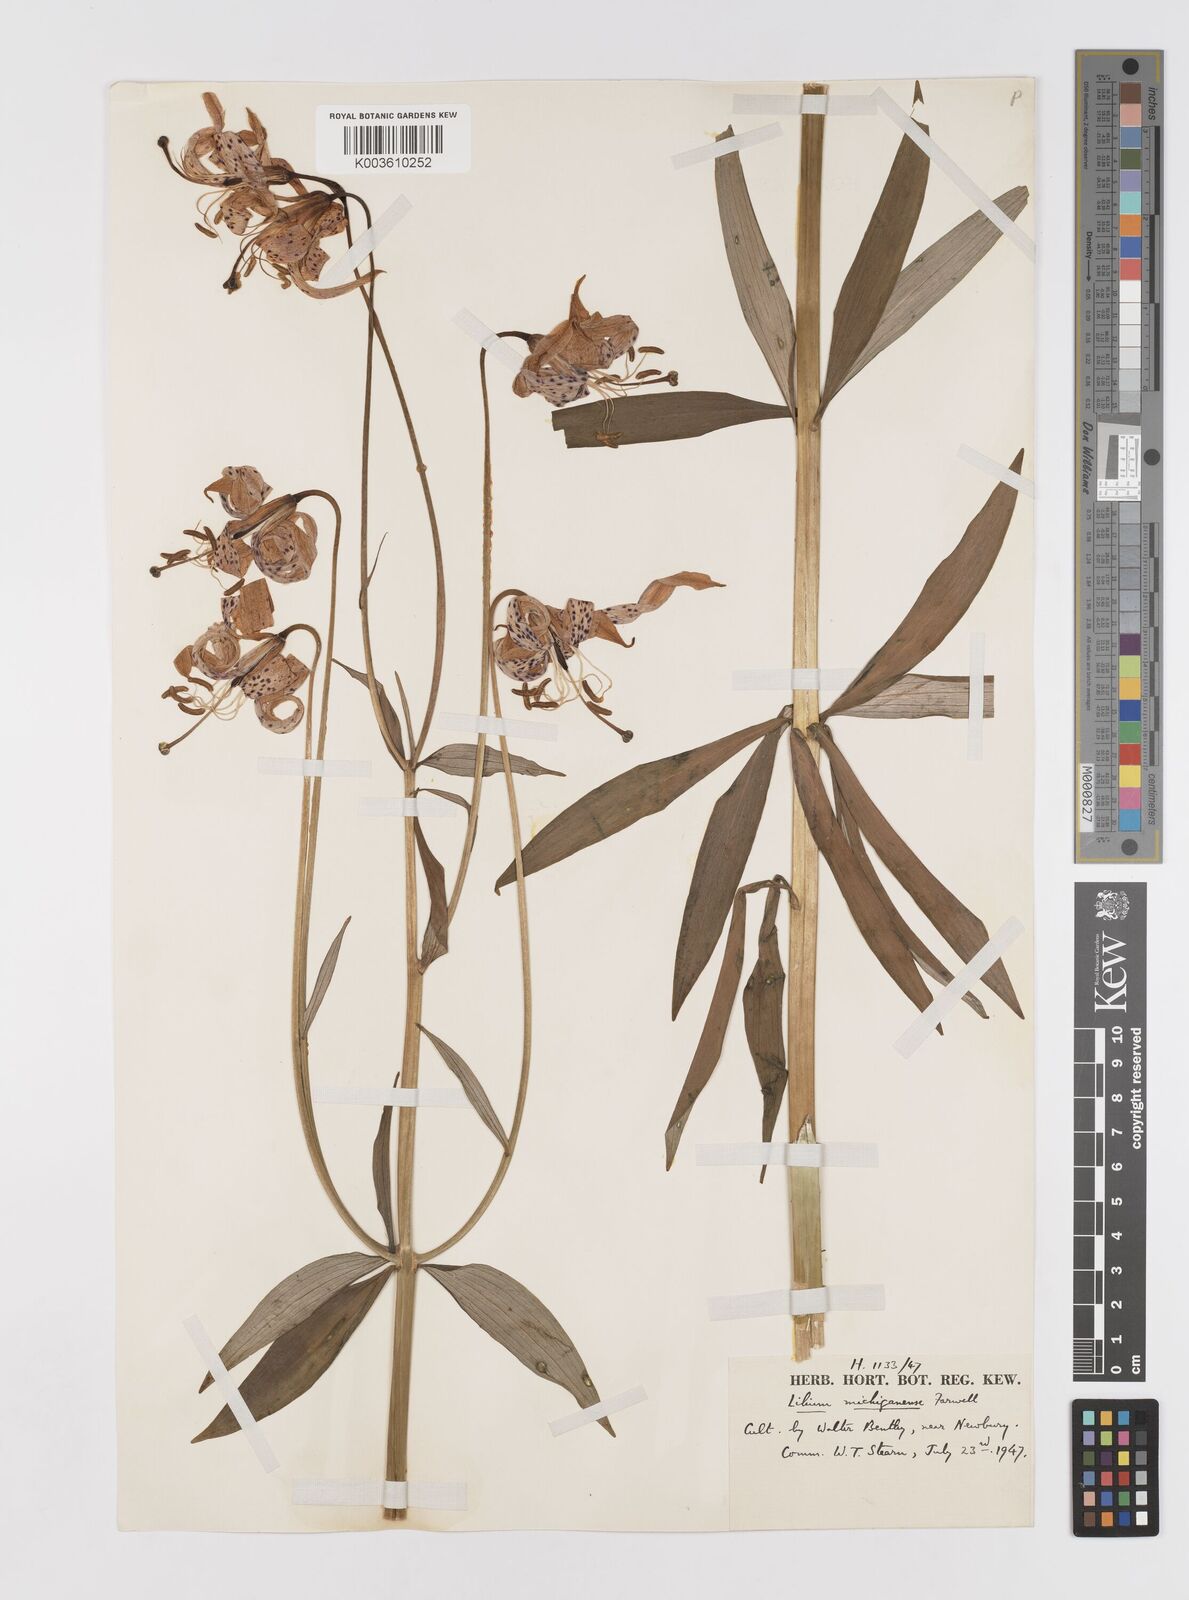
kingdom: Plantae
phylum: Tracheophyta
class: Liliopsida
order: Liliales
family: Liliaceae
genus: Lilium
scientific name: Lilium michiganense
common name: Michigan lily
